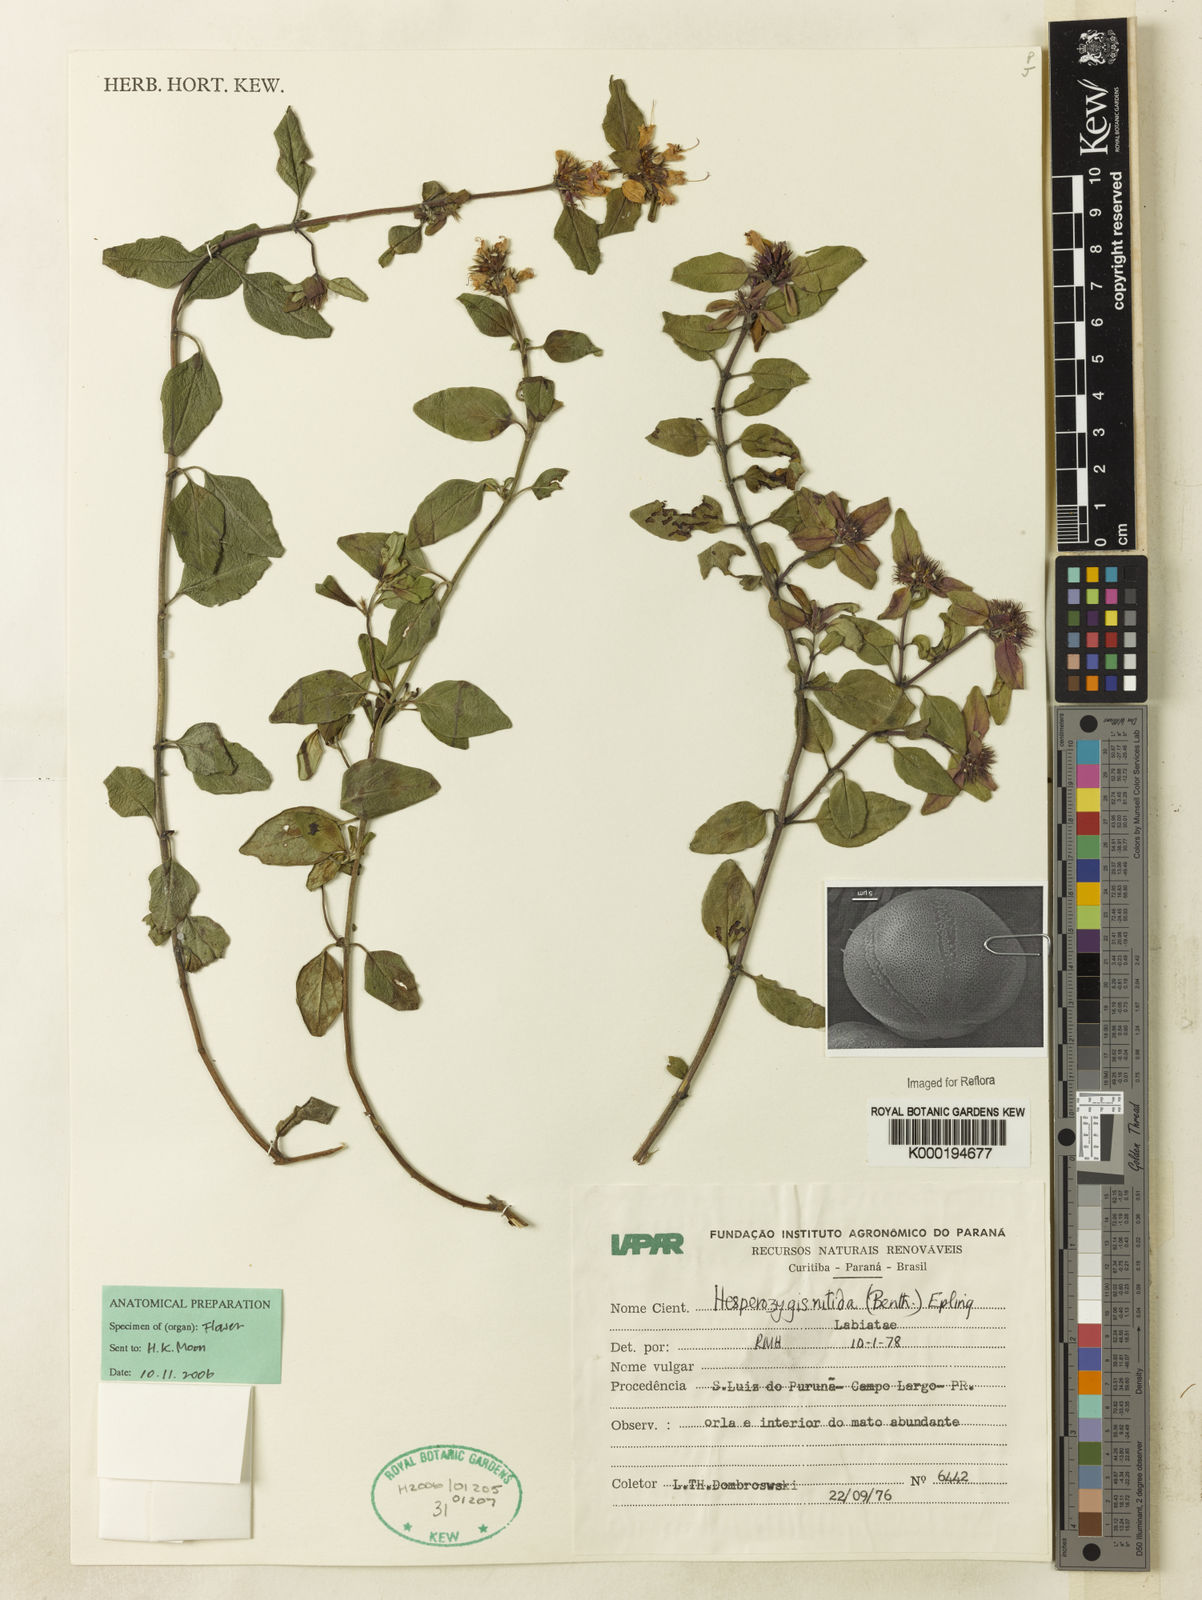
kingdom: Plantae
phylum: Tracheophyta
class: Magnoliopsida
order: Lamiales
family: Lamiaceae
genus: Hesperozygis
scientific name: Hesperozygis nitida
